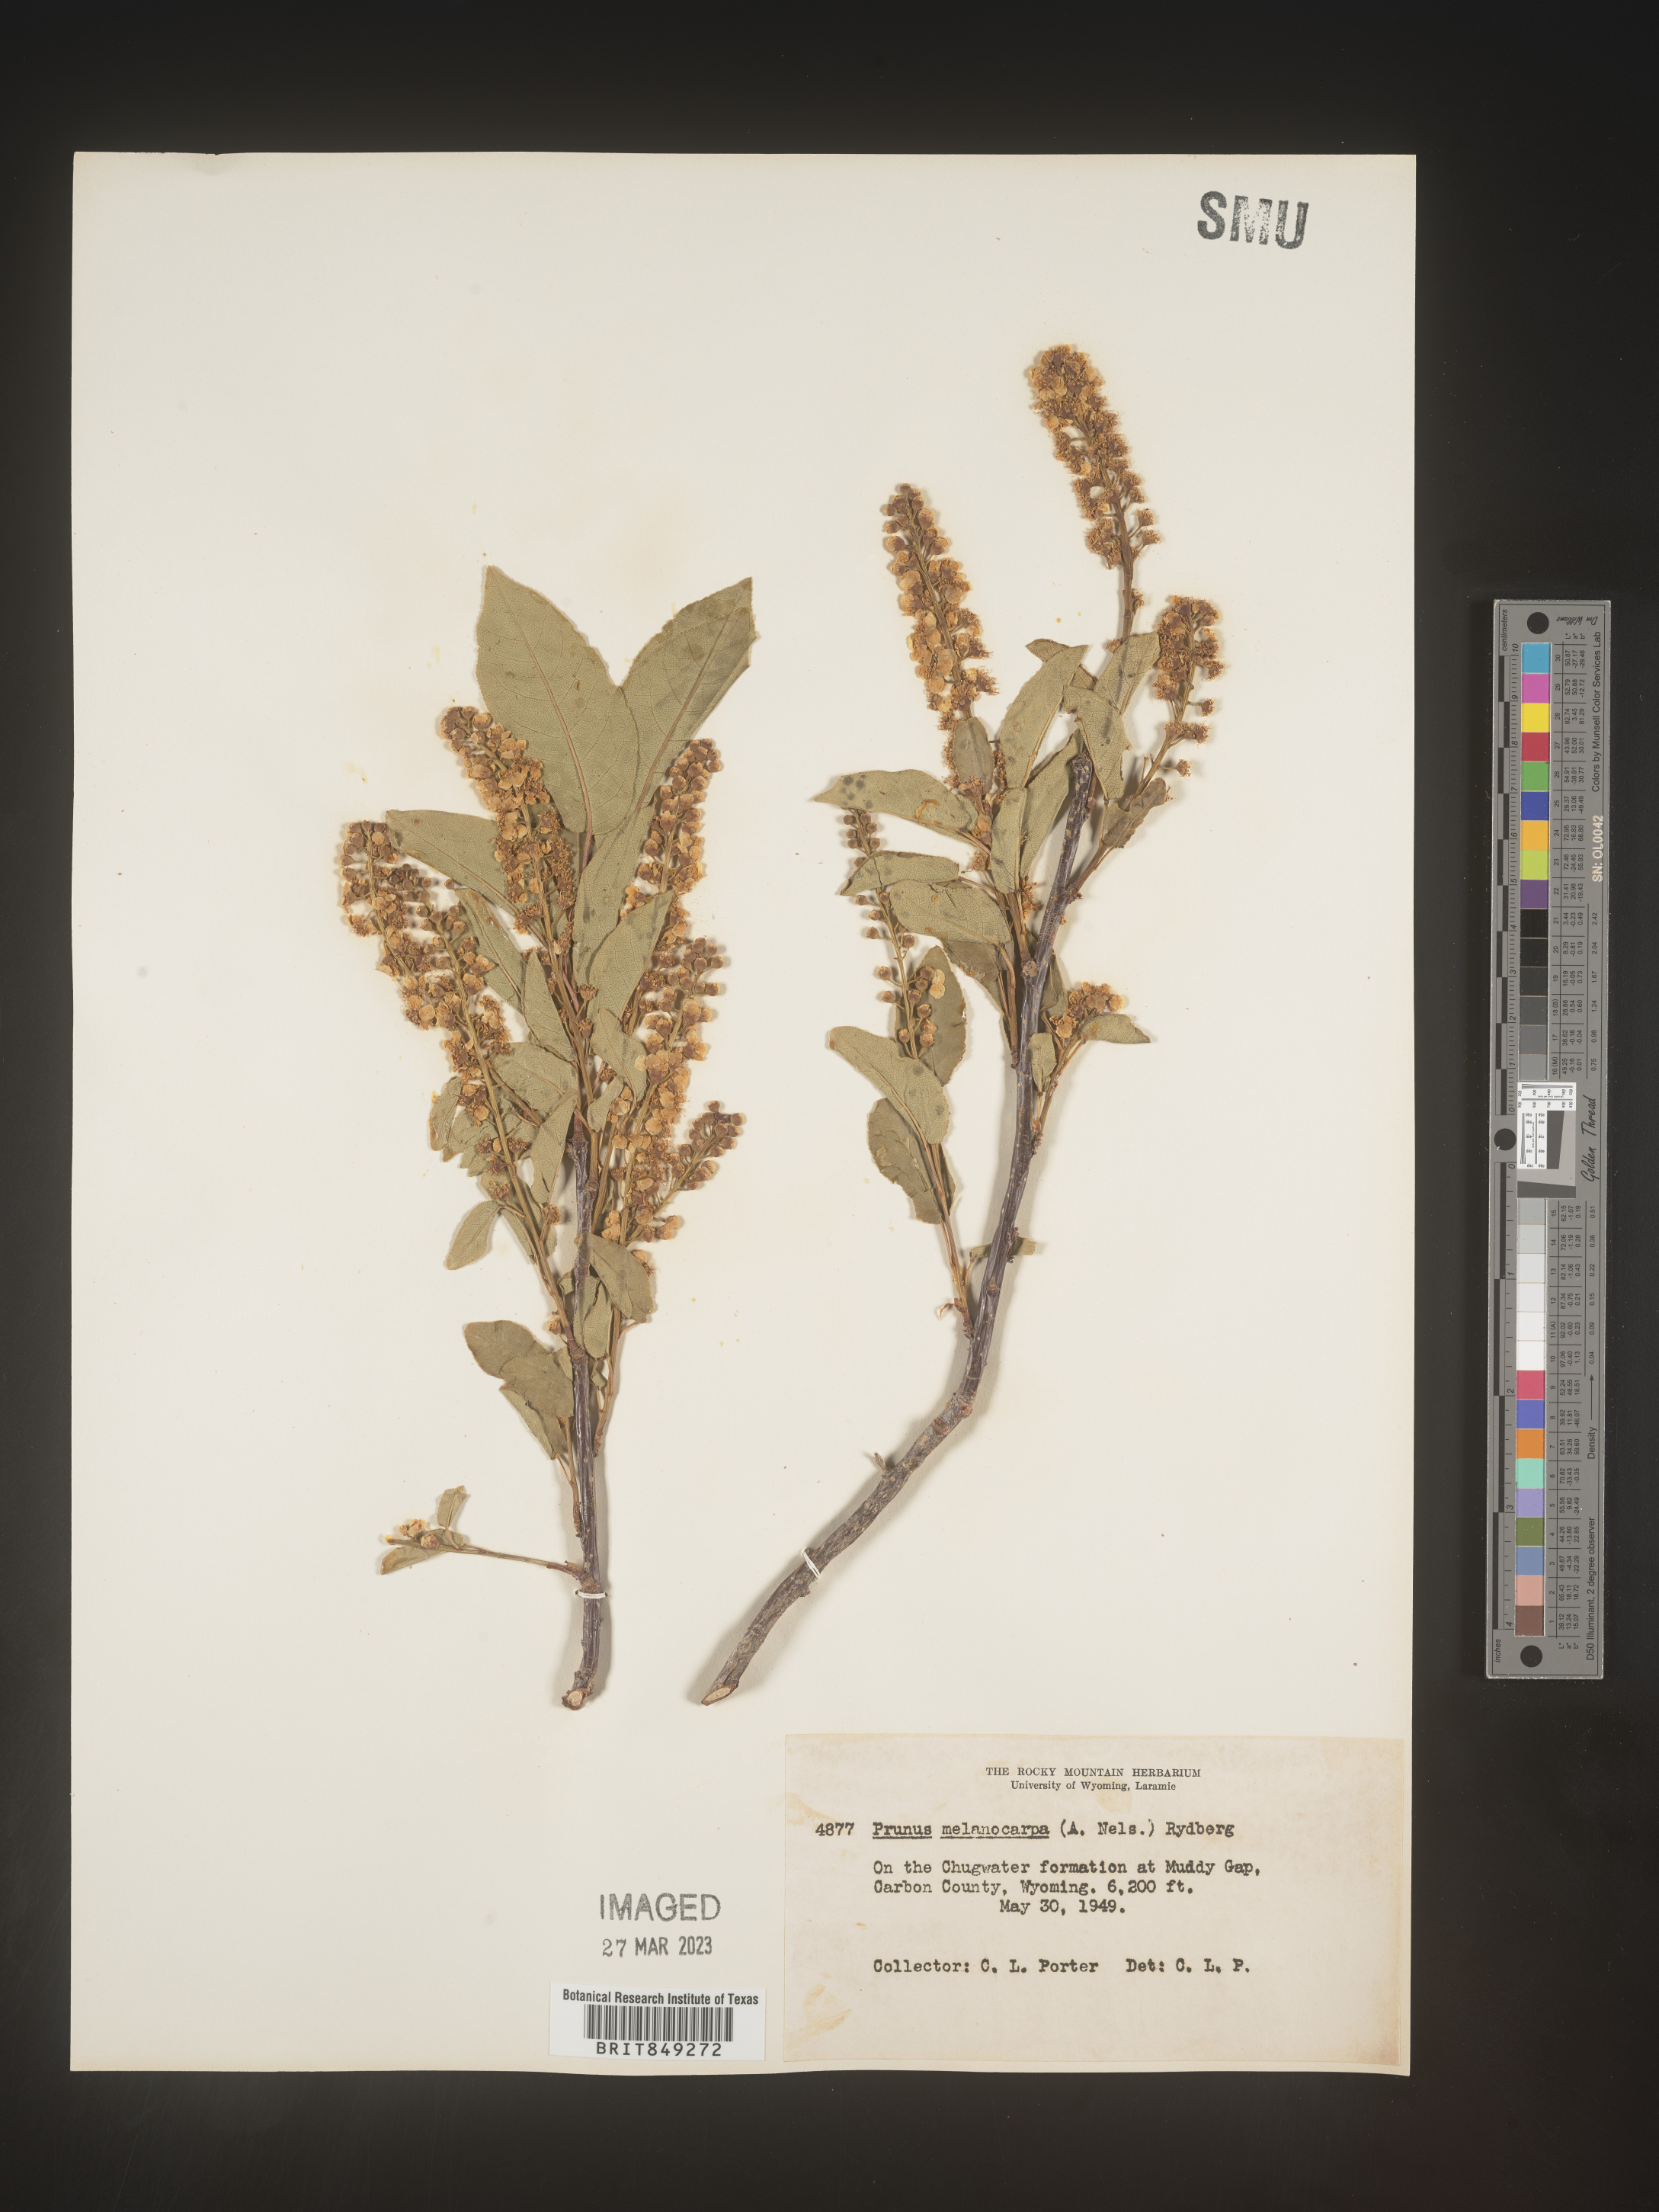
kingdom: Plantae
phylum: Tracheophyta
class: Magnoliopsida
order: Rosales
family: Rosaceae
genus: Prunus
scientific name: Prunus
